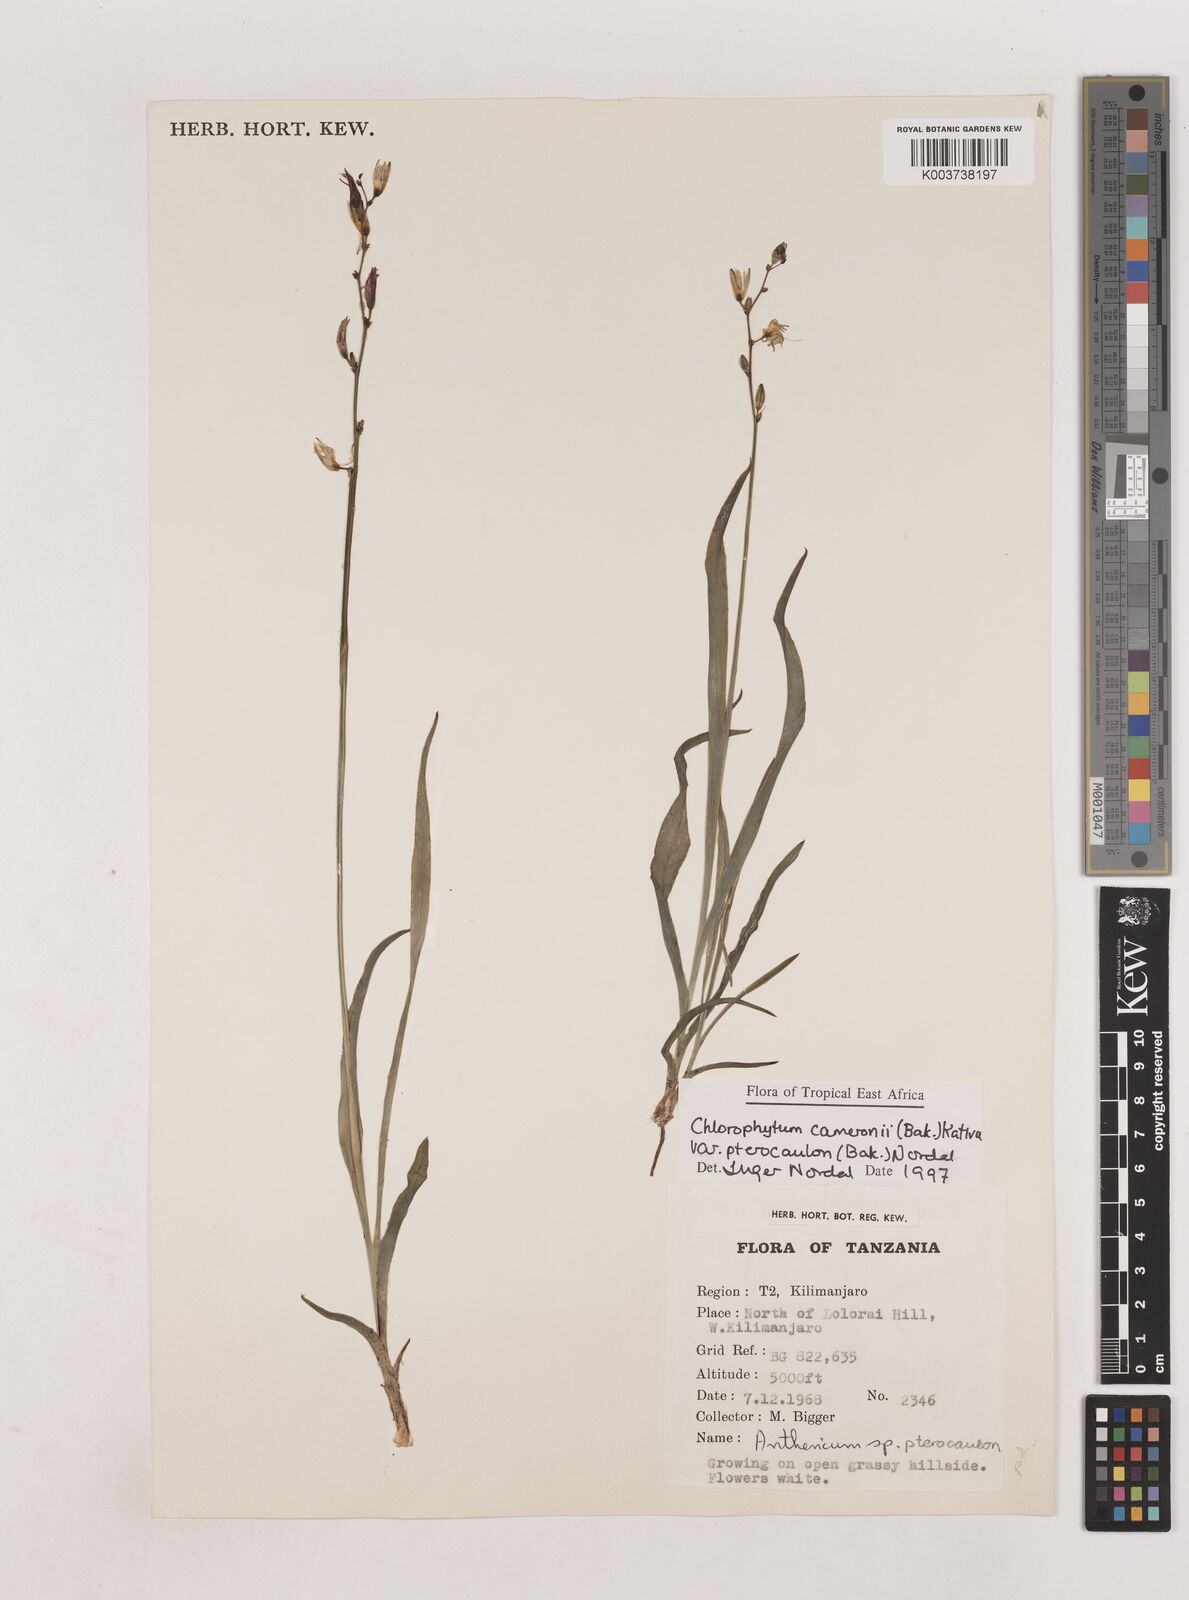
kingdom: Plantae
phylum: Tracheophyta
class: Liliopsida
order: Asparagales
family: Asparagaceae
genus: Chlorophytum
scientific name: Chlorophytum cameronii
